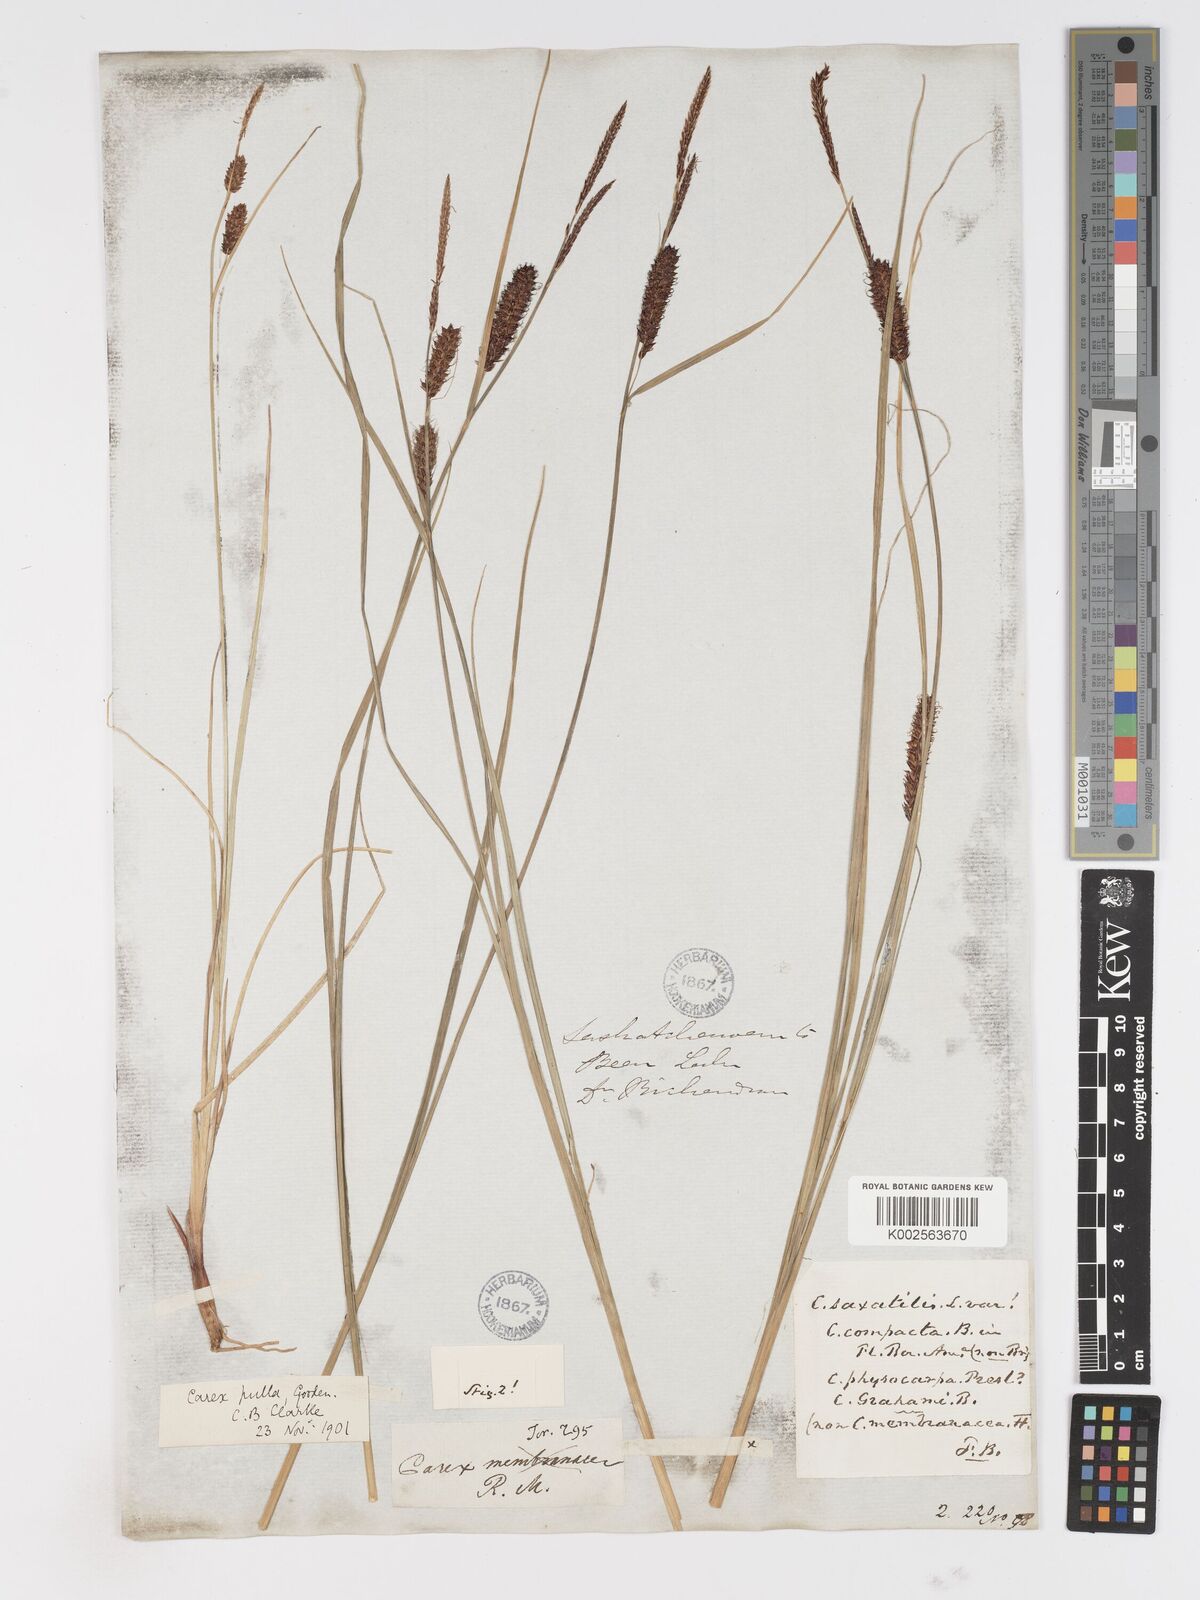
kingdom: Plantae
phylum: Tracheophyta
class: Liliopsida
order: Poales
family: Cyperaceae
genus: Carex
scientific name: Carex saxatilis
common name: Russet sedge
